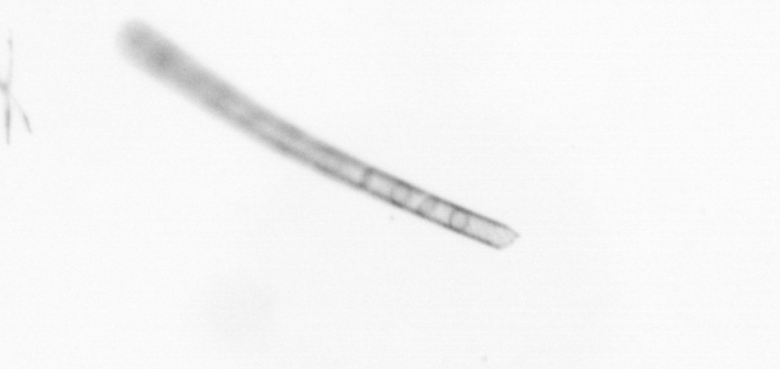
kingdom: Chromista
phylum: Ochrophyta
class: Bacillariophyceae
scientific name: Bacillariophyceae
